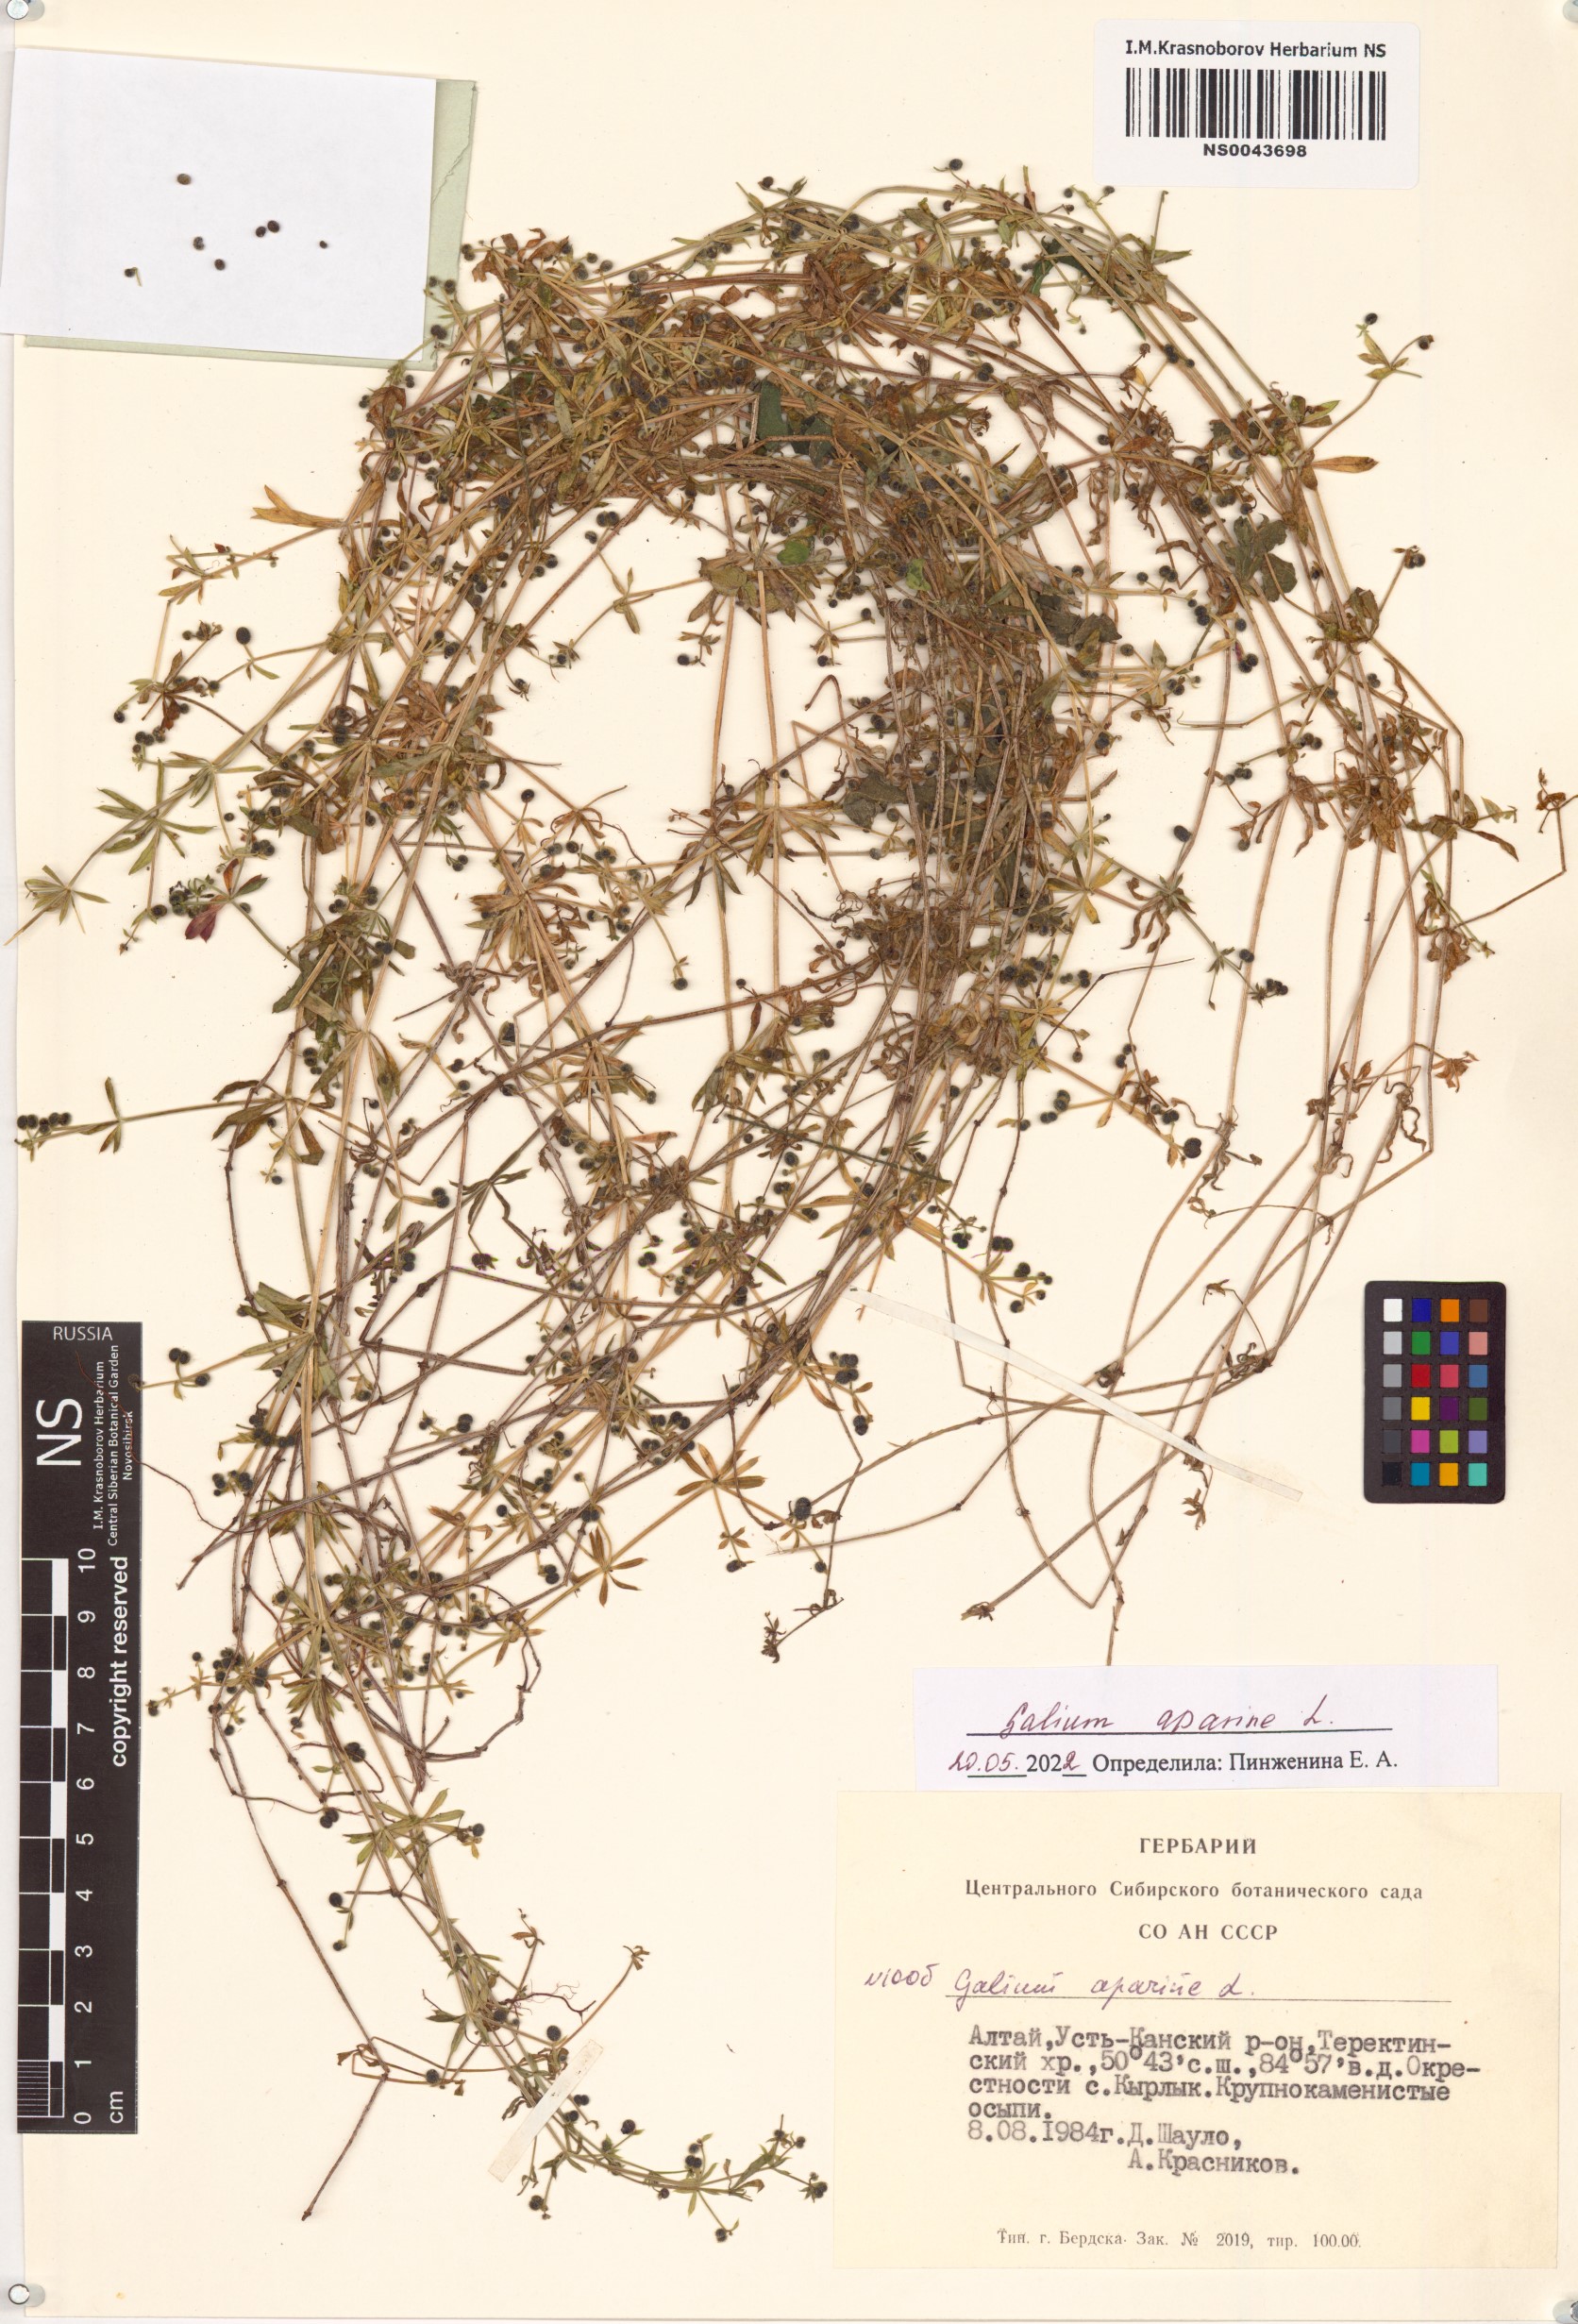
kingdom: Plantae
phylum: Tracheophyta
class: Magnoliopsida
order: Gentianales
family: Rubiaceae
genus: Galium
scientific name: Galium aparine
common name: Cleavers
